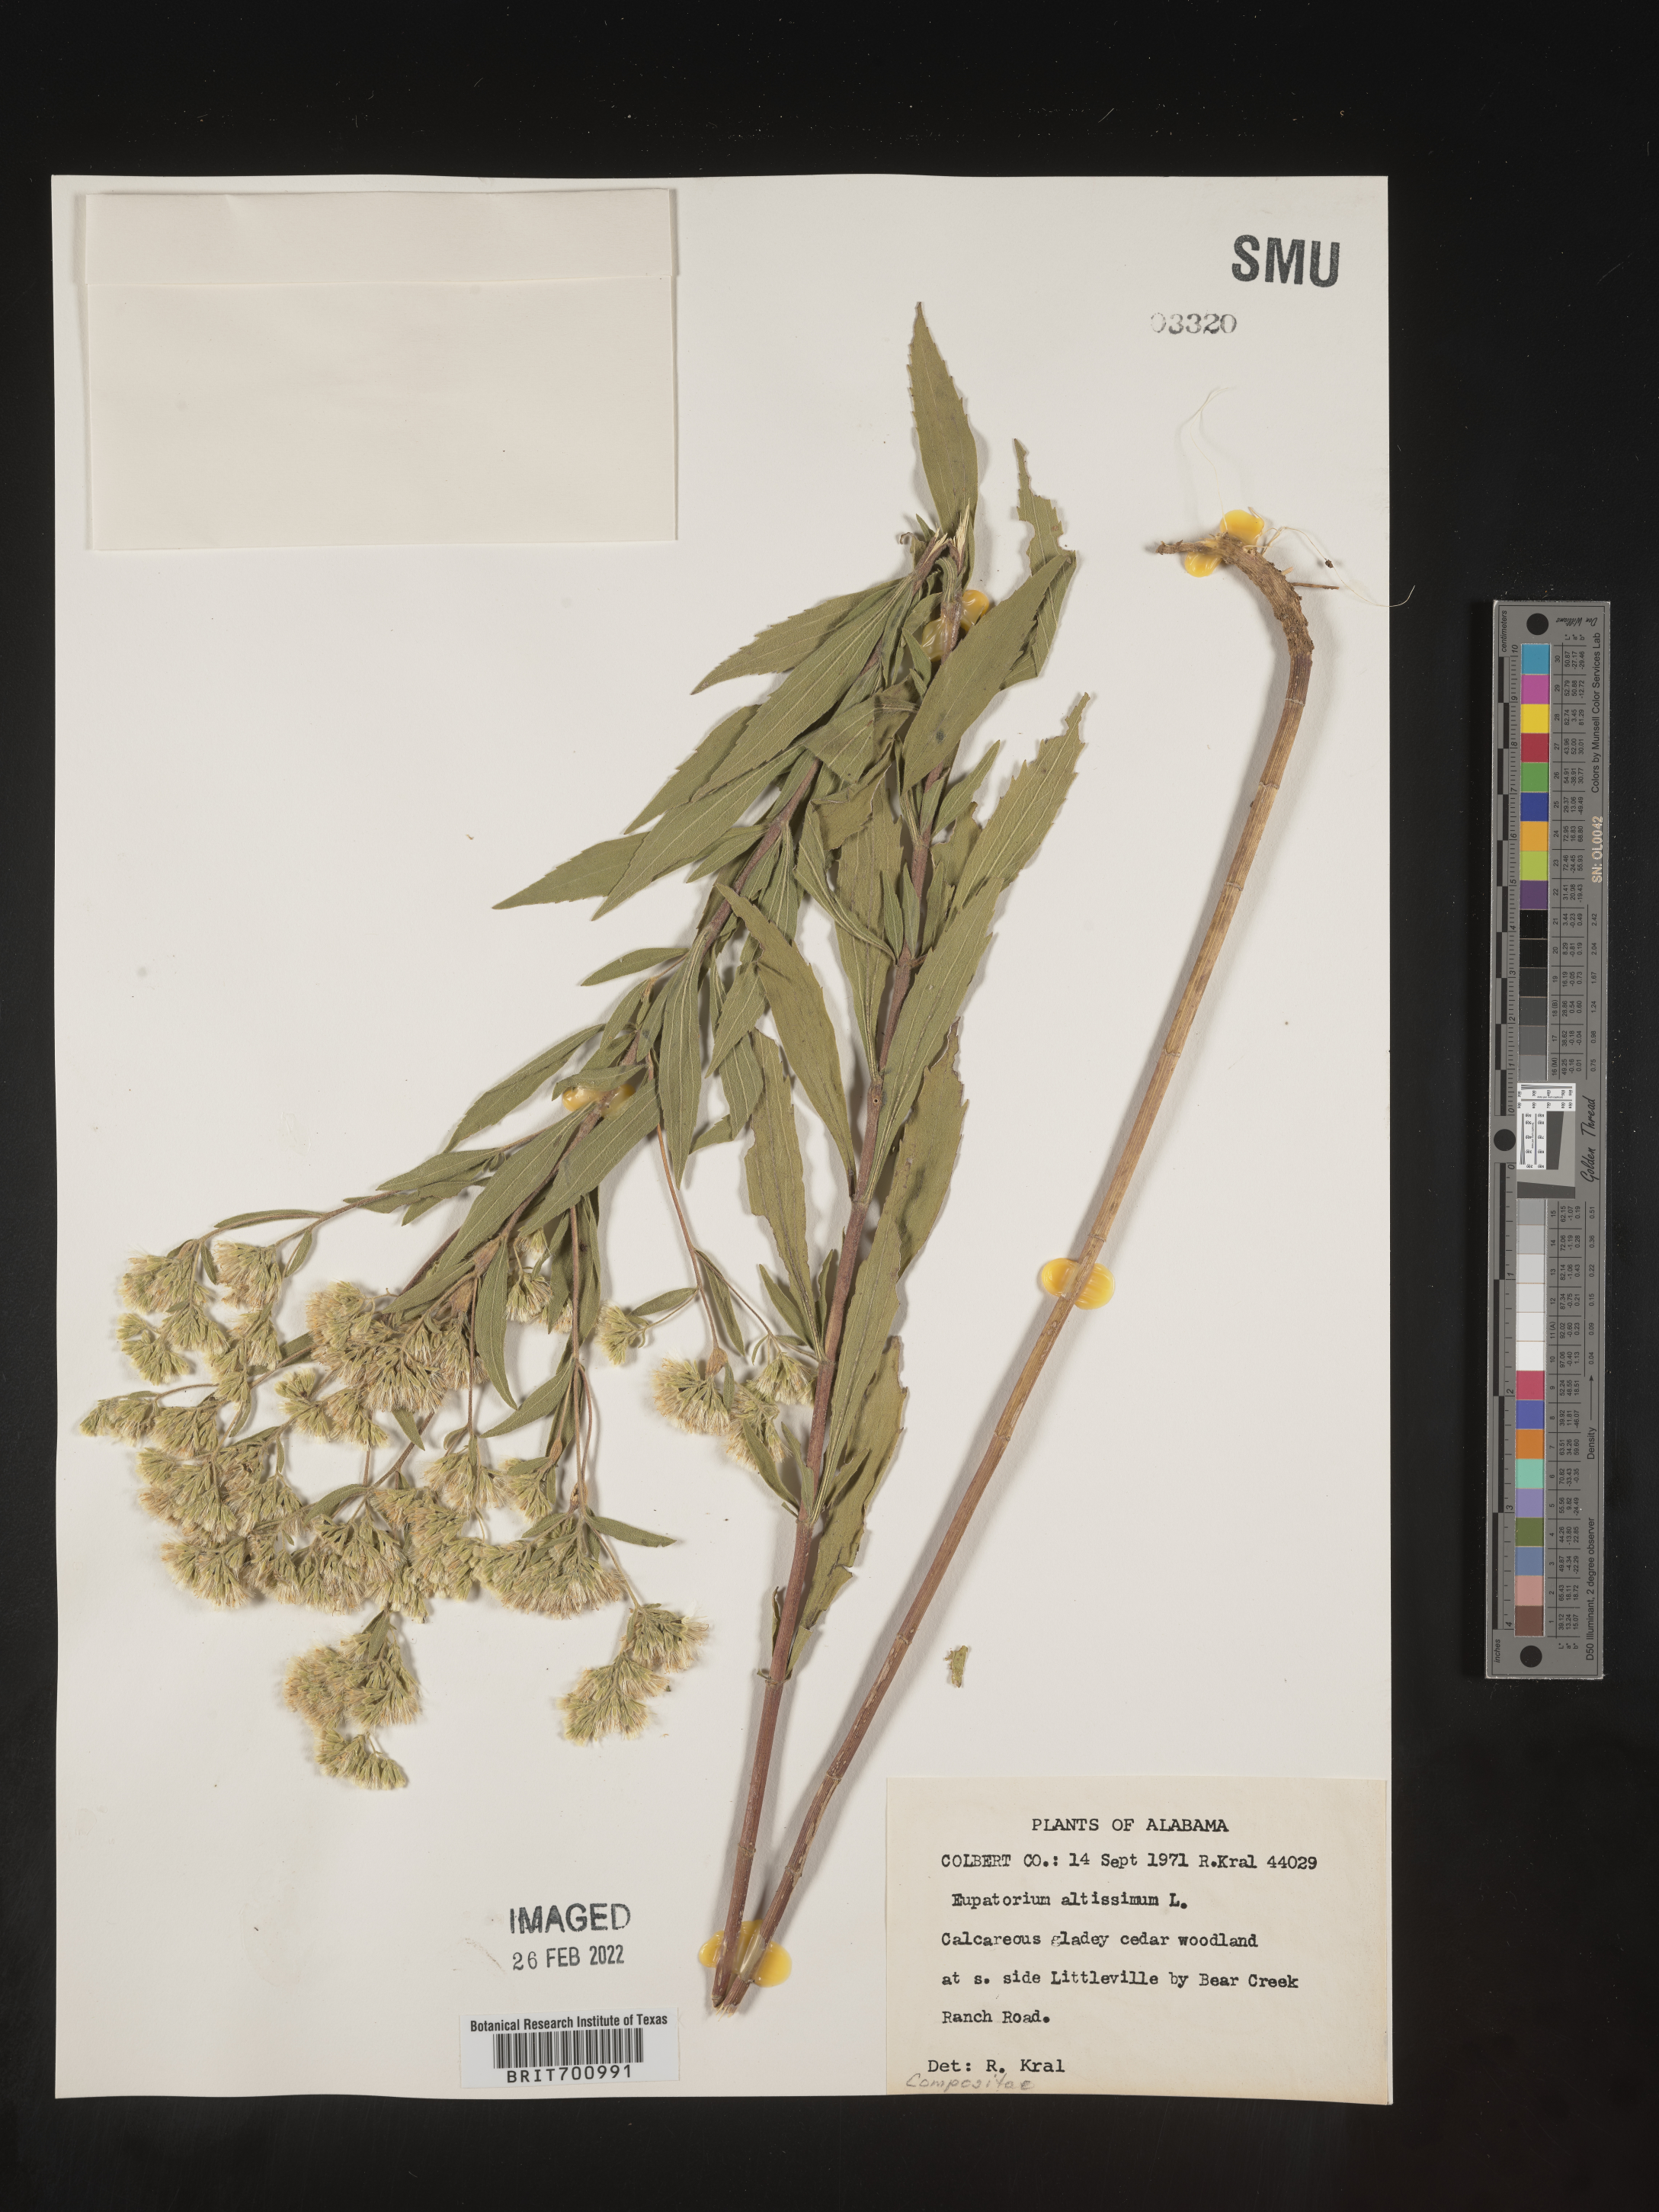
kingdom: Plantae
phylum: Tracheophyta
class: Magnoliopsida
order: Asterales
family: Asteraceae
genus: Eupatorium
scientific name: Eupatorium altissimum
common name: Tall thoroughwort
